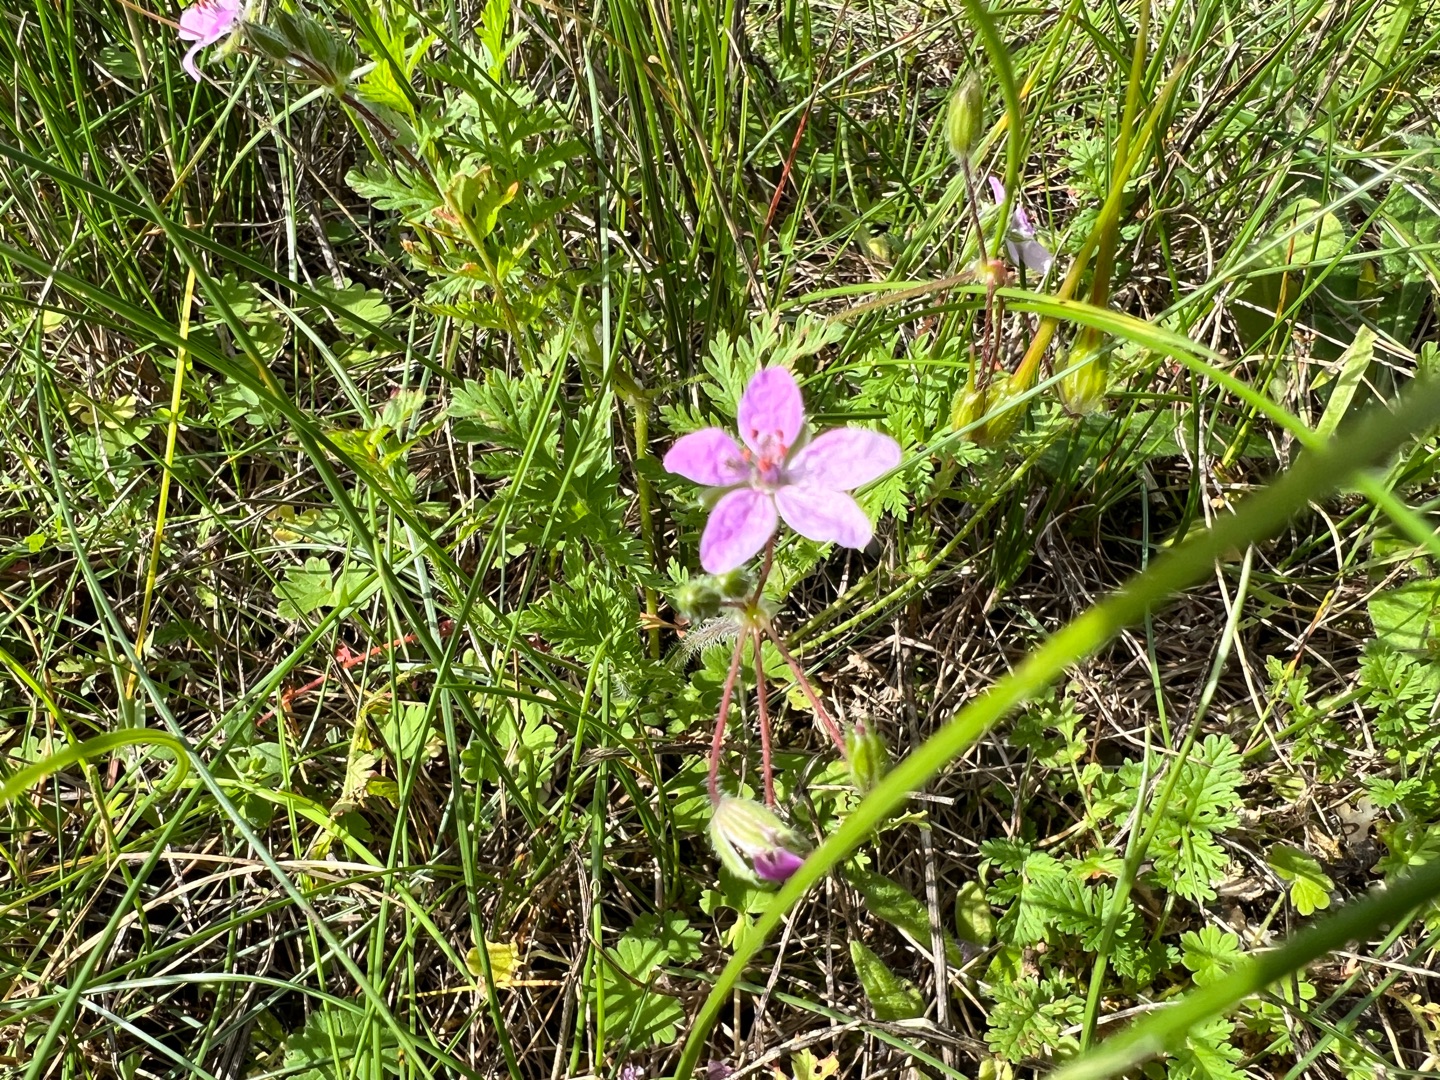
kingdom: Plantae
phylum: Tracheophyta
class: Magnoliopsida
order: Geraniales
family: Geraniaceae
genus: Erodium
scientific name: Erodium
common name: Hejrenæbslægten
